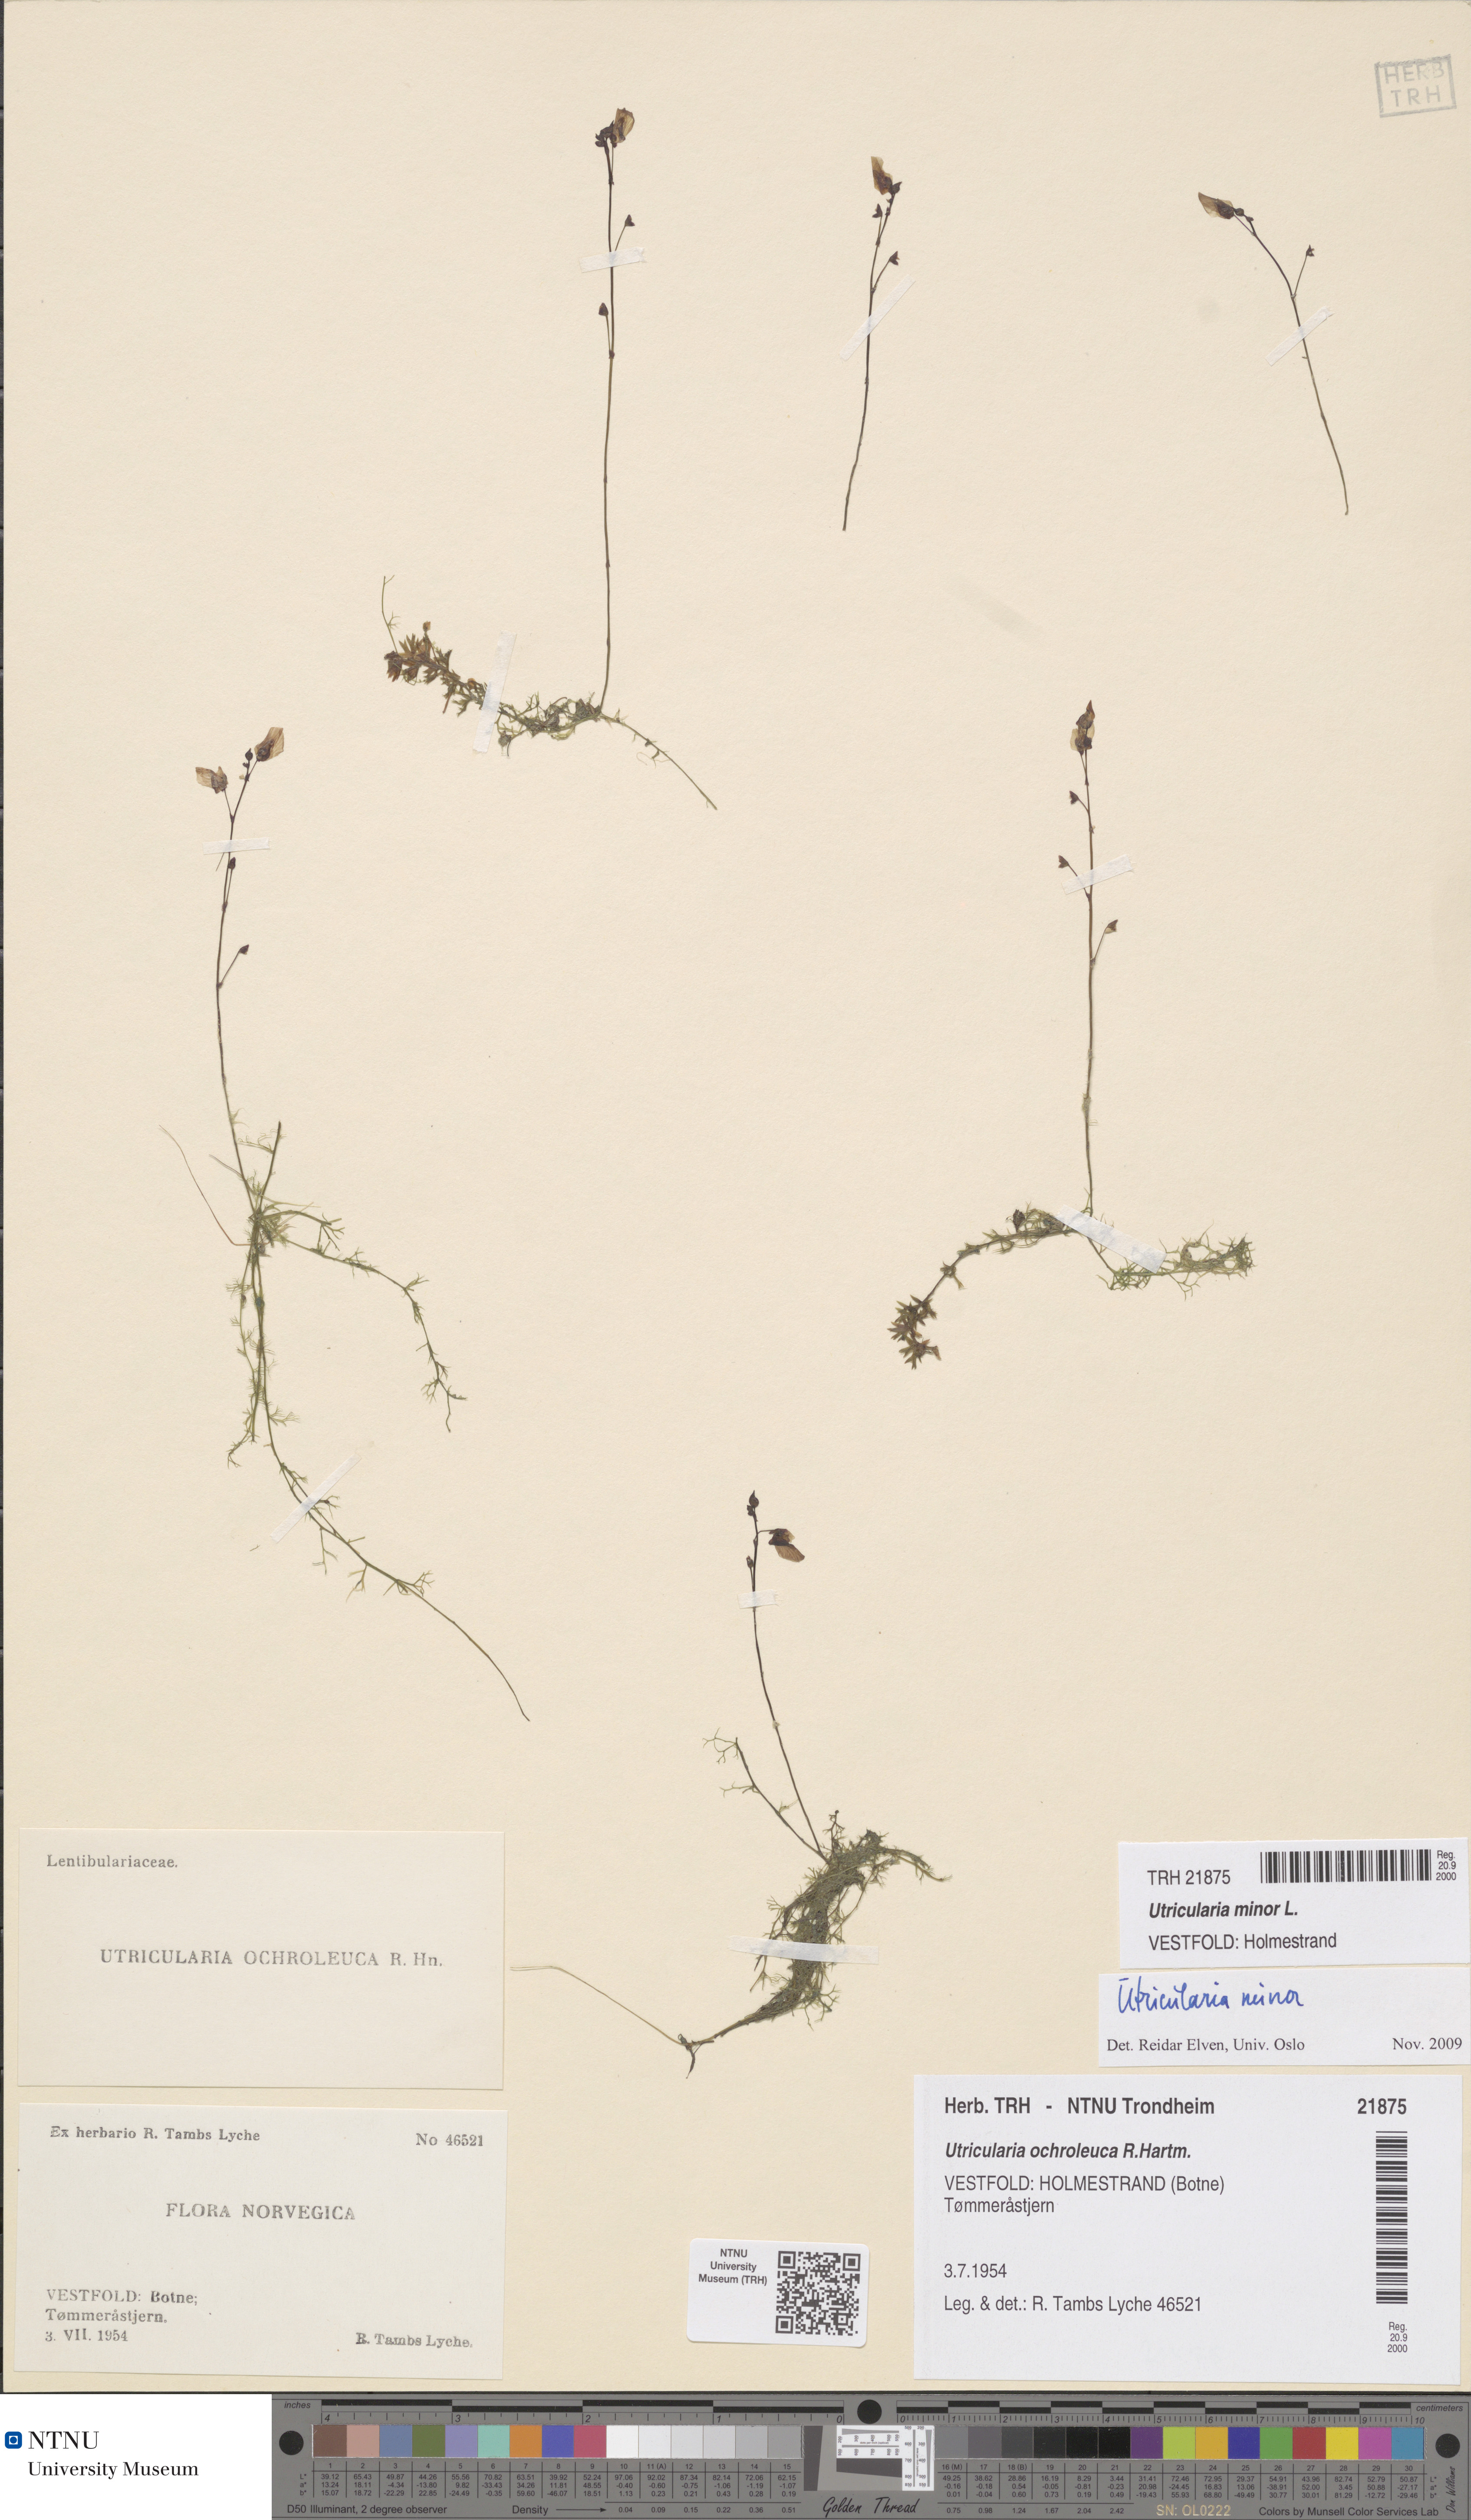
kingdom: Plantae
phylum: Tracheophyta
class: Magnoliopsida
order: Lamiales
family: Lentibulariaceae
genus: Utricularia
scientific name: Utricularia minor
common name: Lesser bladderwort
